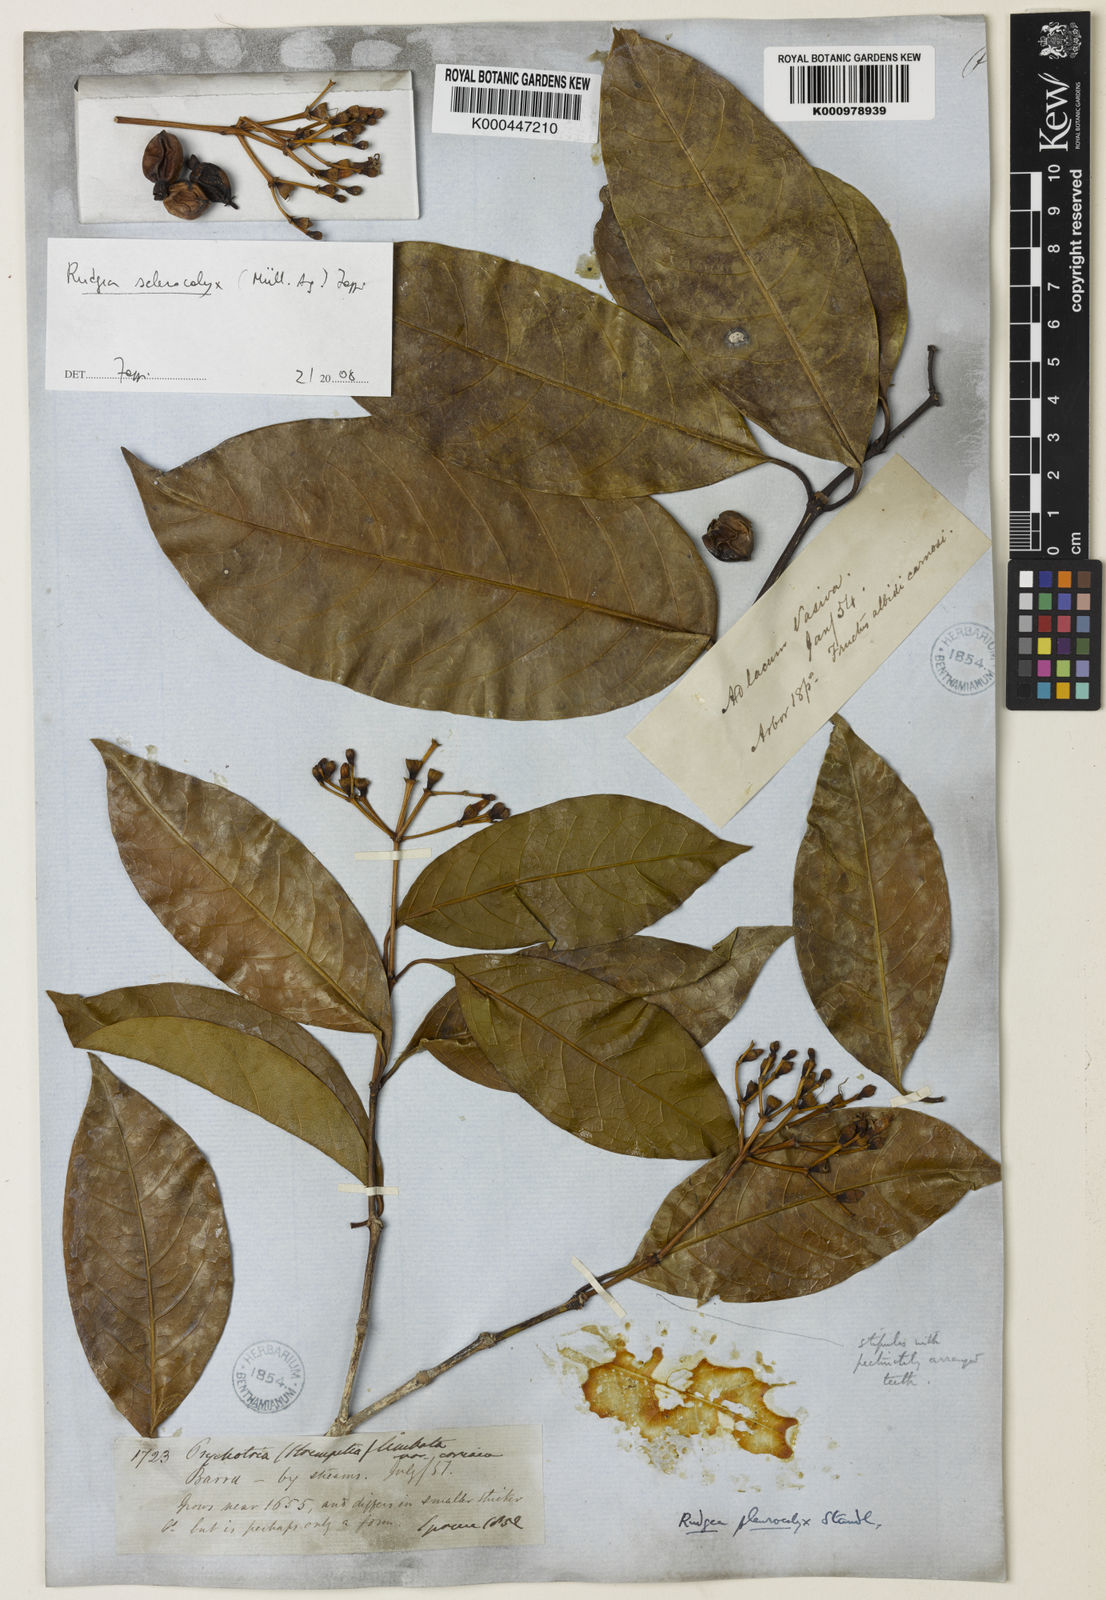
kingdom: Plantae
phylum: Tracheophyta
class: Magnoliopsida
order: Gentianales
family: Rubiaceae
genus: Rudgea
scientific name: Rudgea
